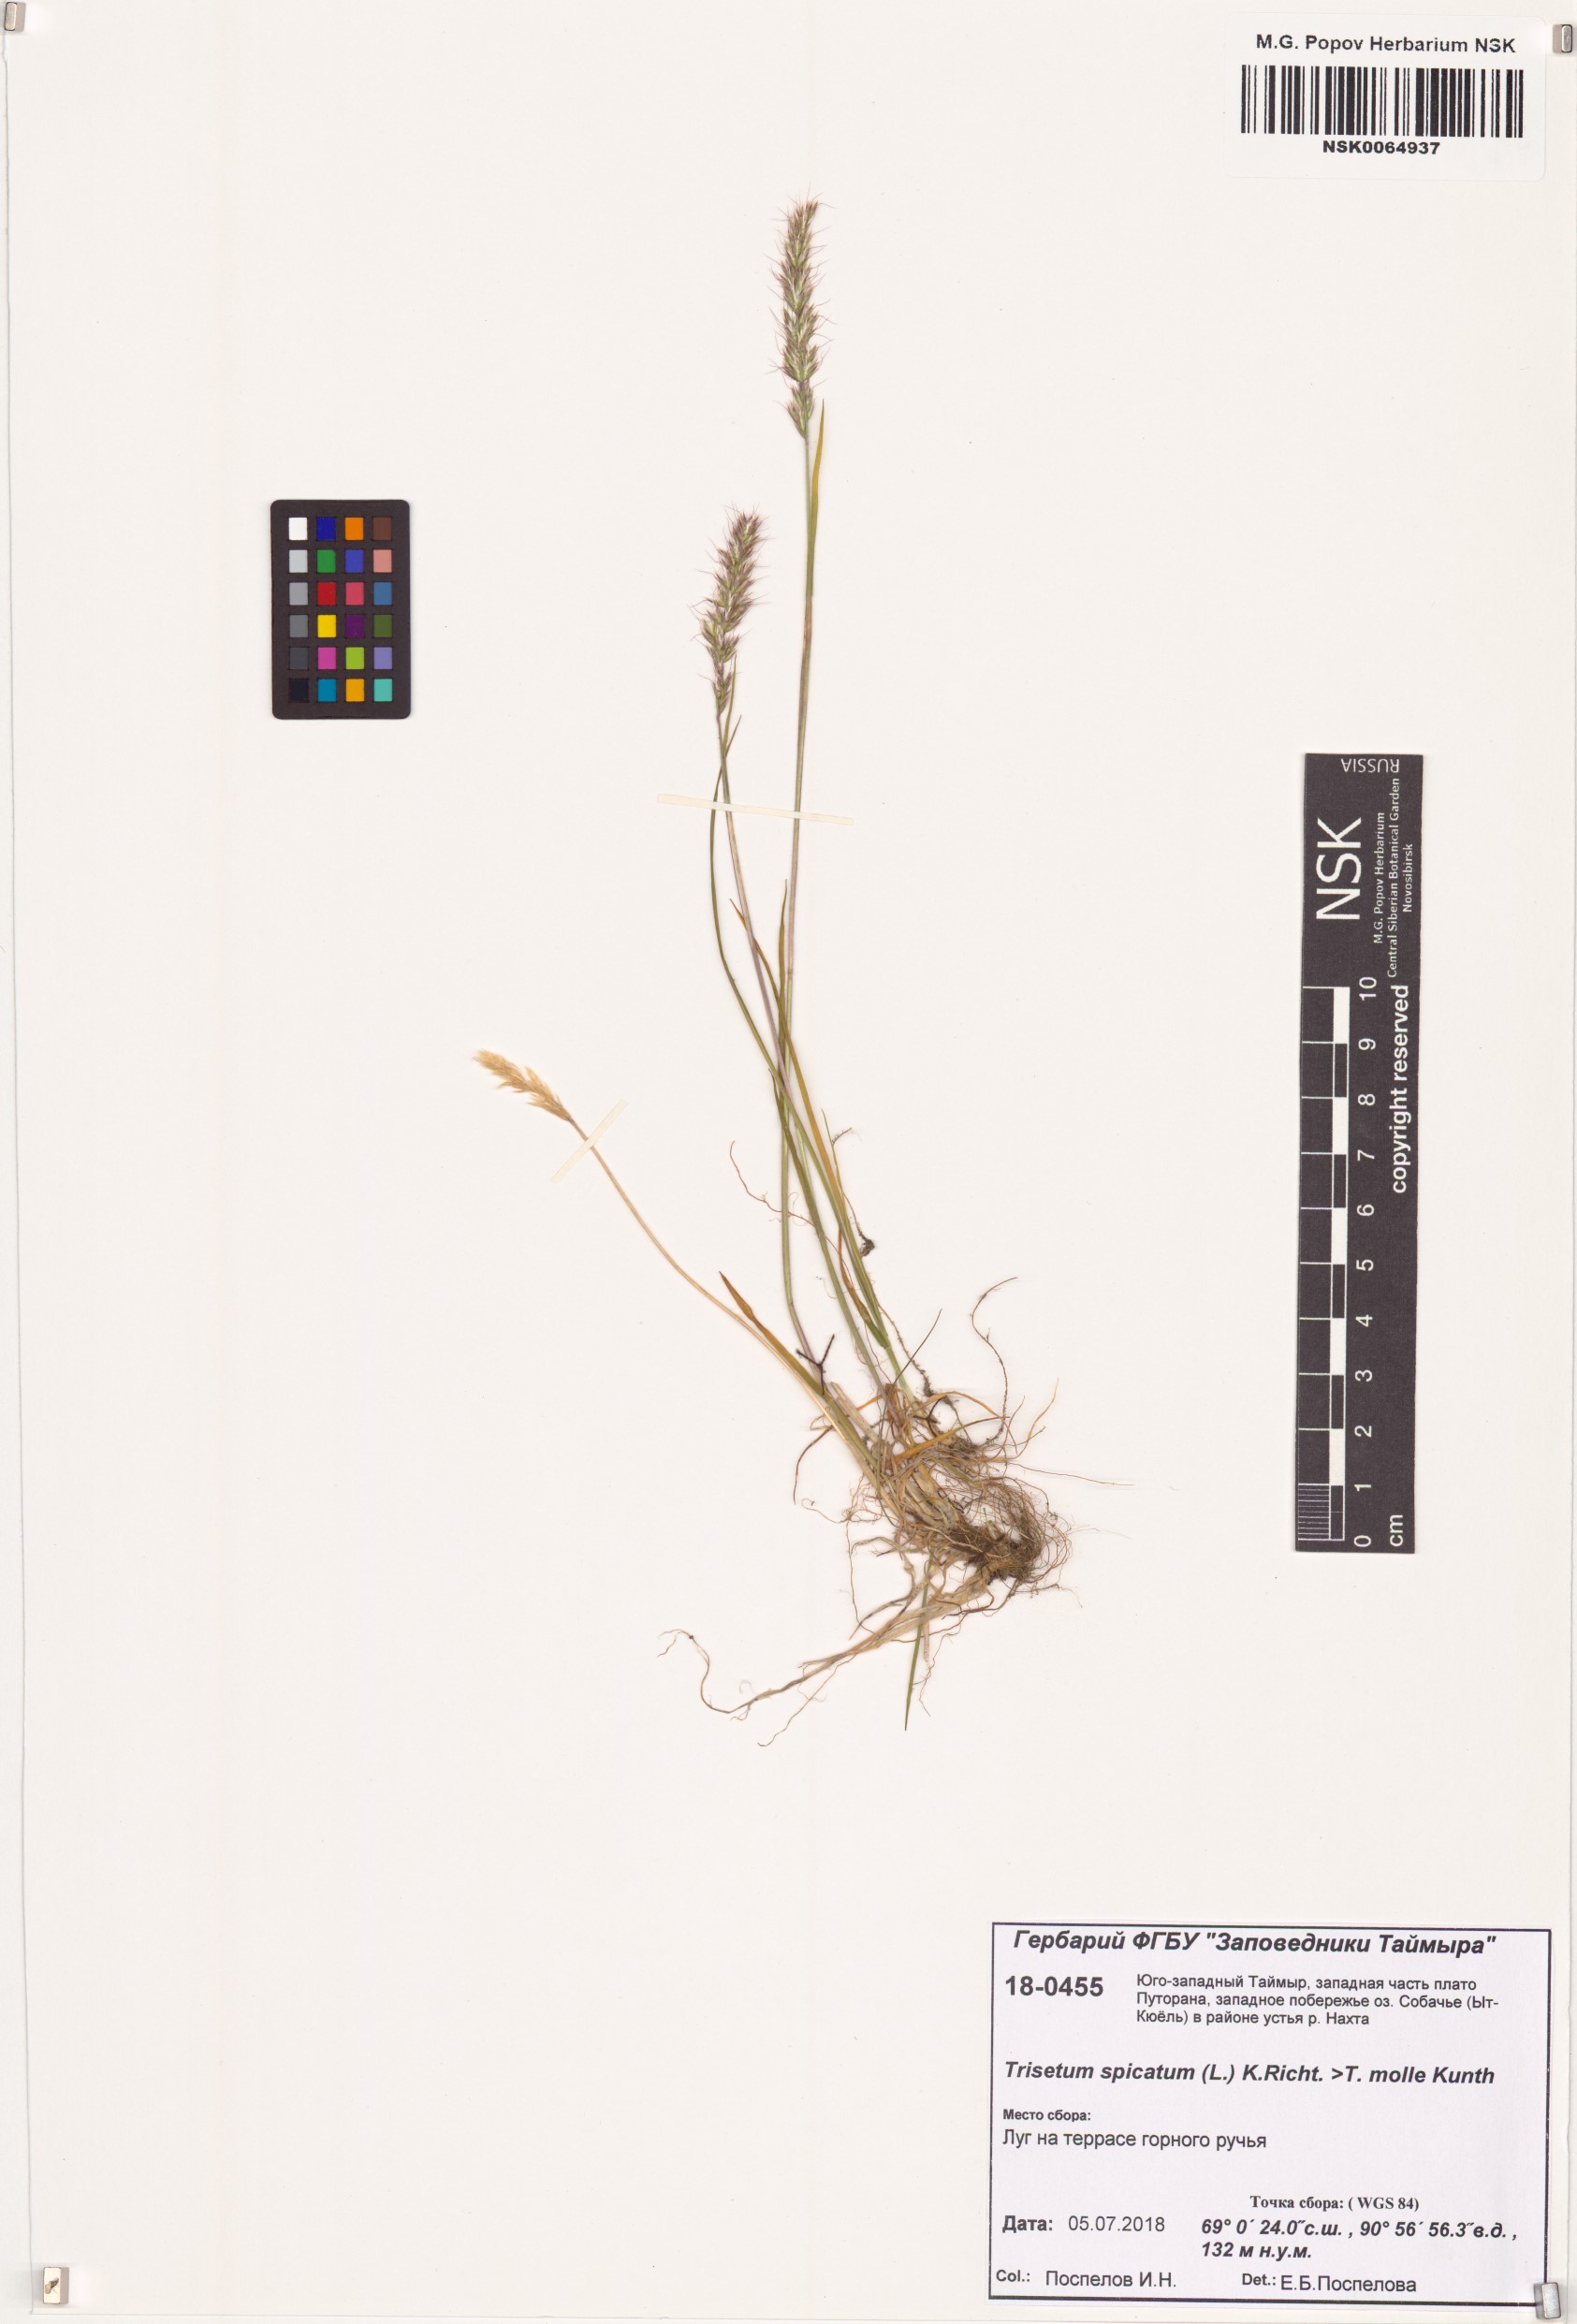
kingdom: Plantae
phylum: Tracheophyta
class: Liliopsida
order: Poales
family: Poaceae
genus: Koeleria
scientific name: Koeleria spicata
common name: Mountain trisetum
